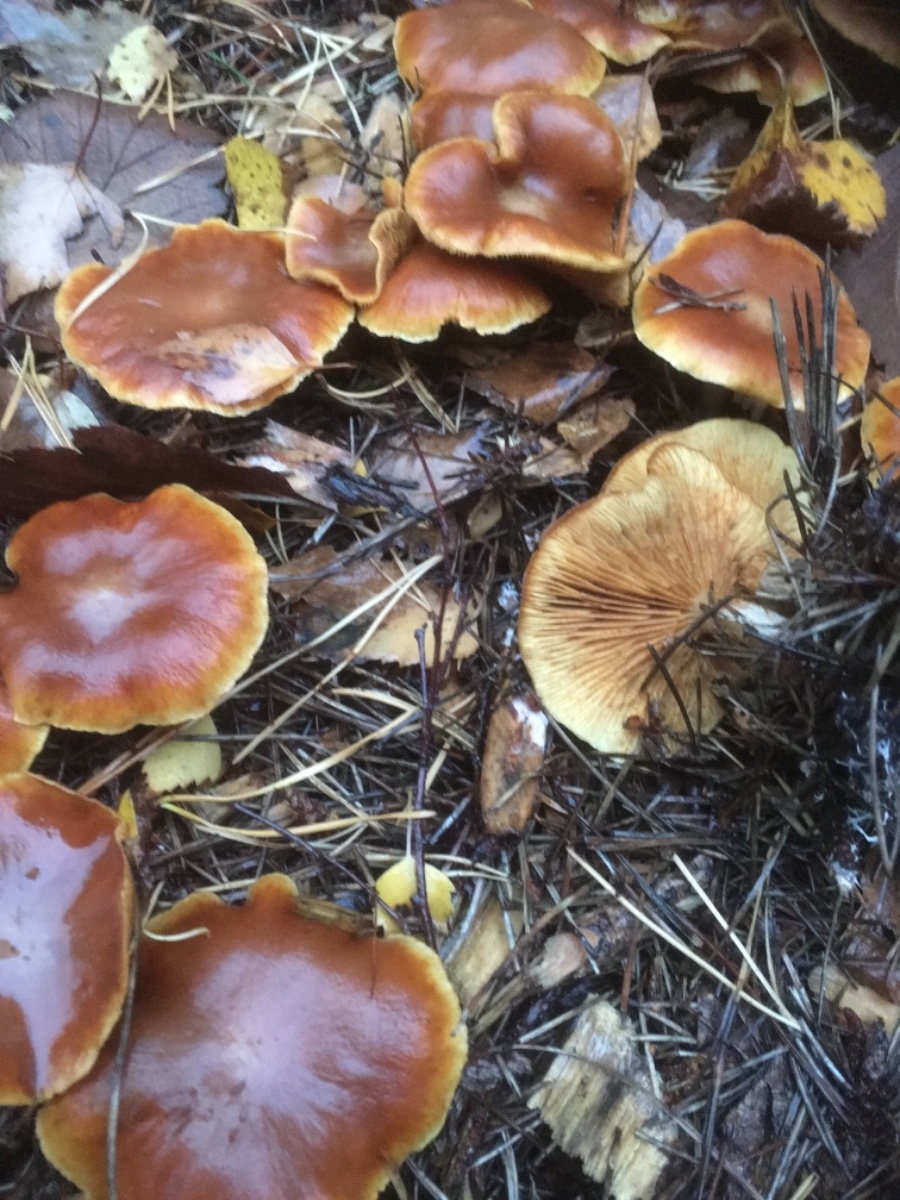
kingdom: Fungi
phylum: Basidiomycota
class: Agaricomycetes
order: Agaricales
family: Hymenogastraceae
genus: Gymnopilus
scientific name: Gymnopilus penetrans
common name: plettet flammehat
